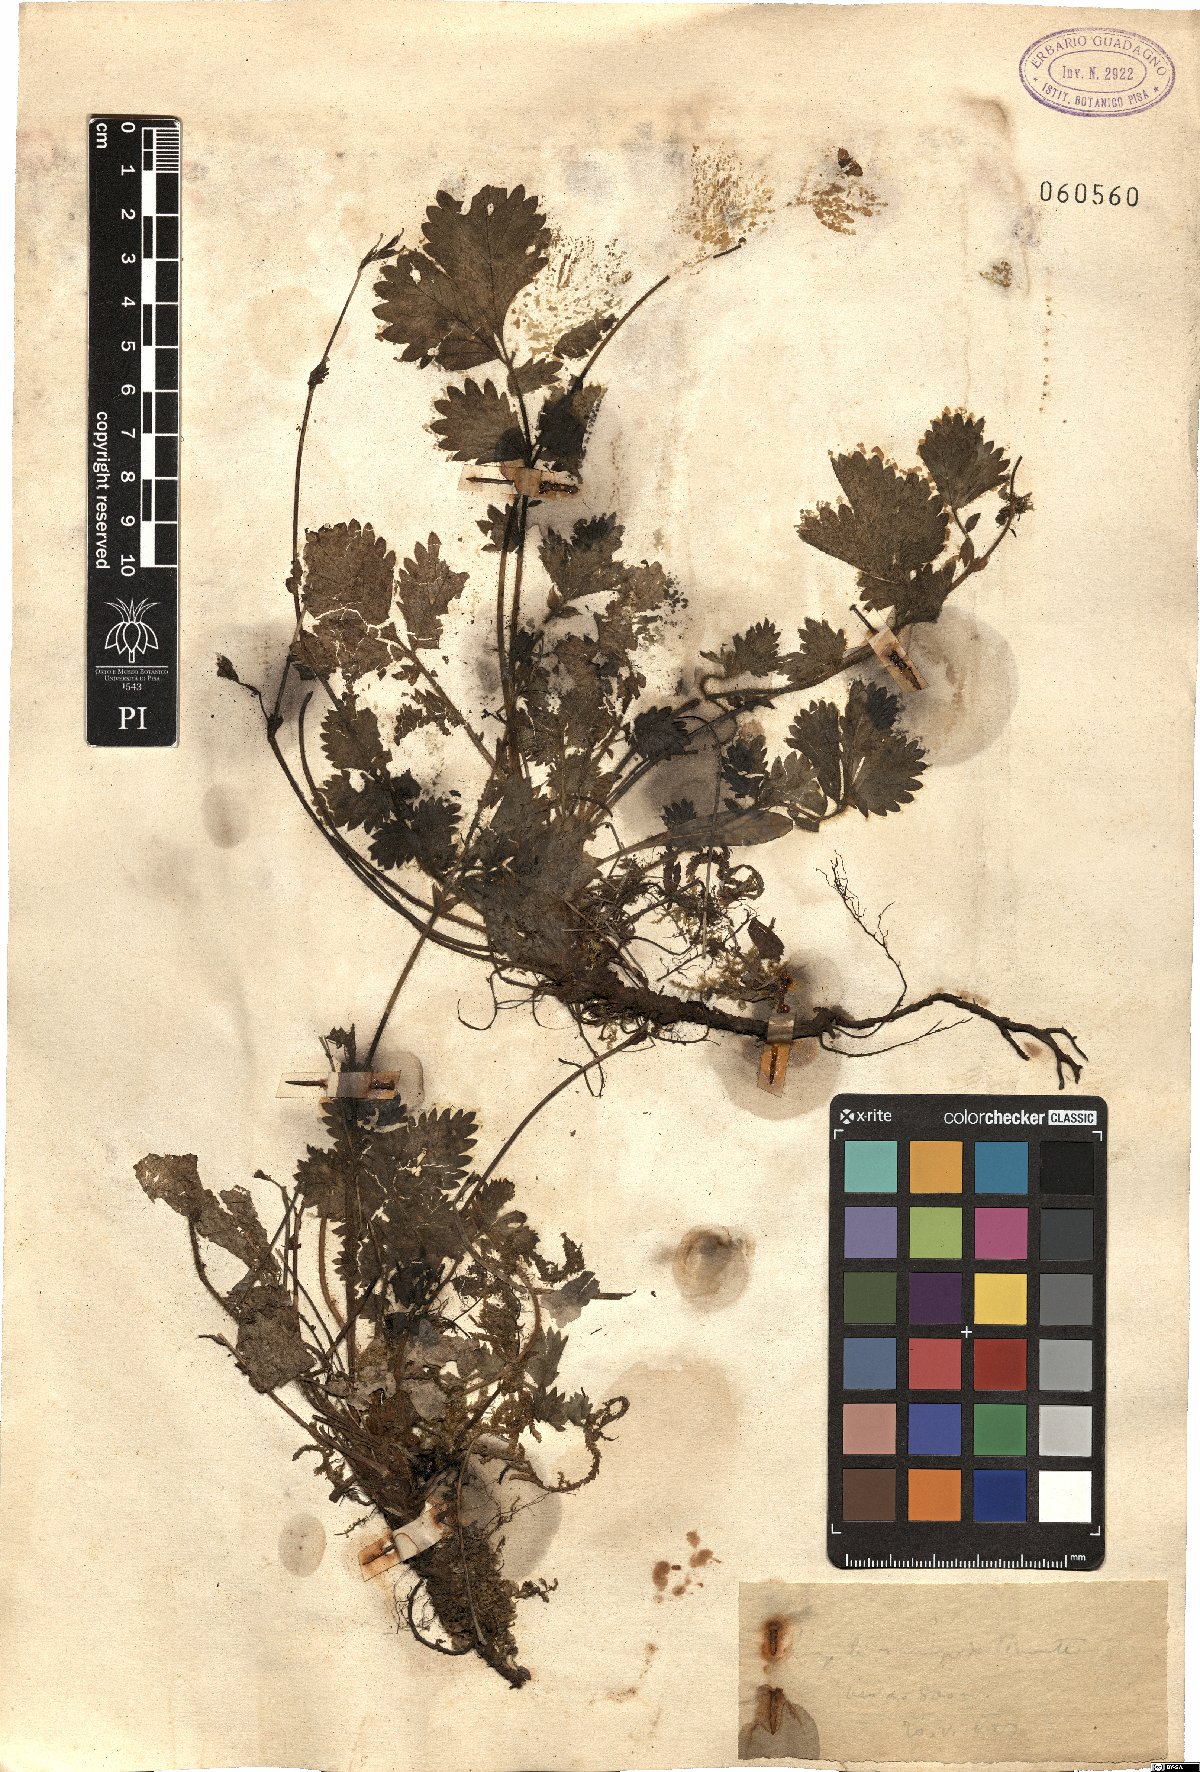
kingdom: Plantae
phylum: Tracheophyta
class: Magnoliopsida
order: Rosales
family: Rosaceae
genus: Potentilla
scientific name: Potentilla
